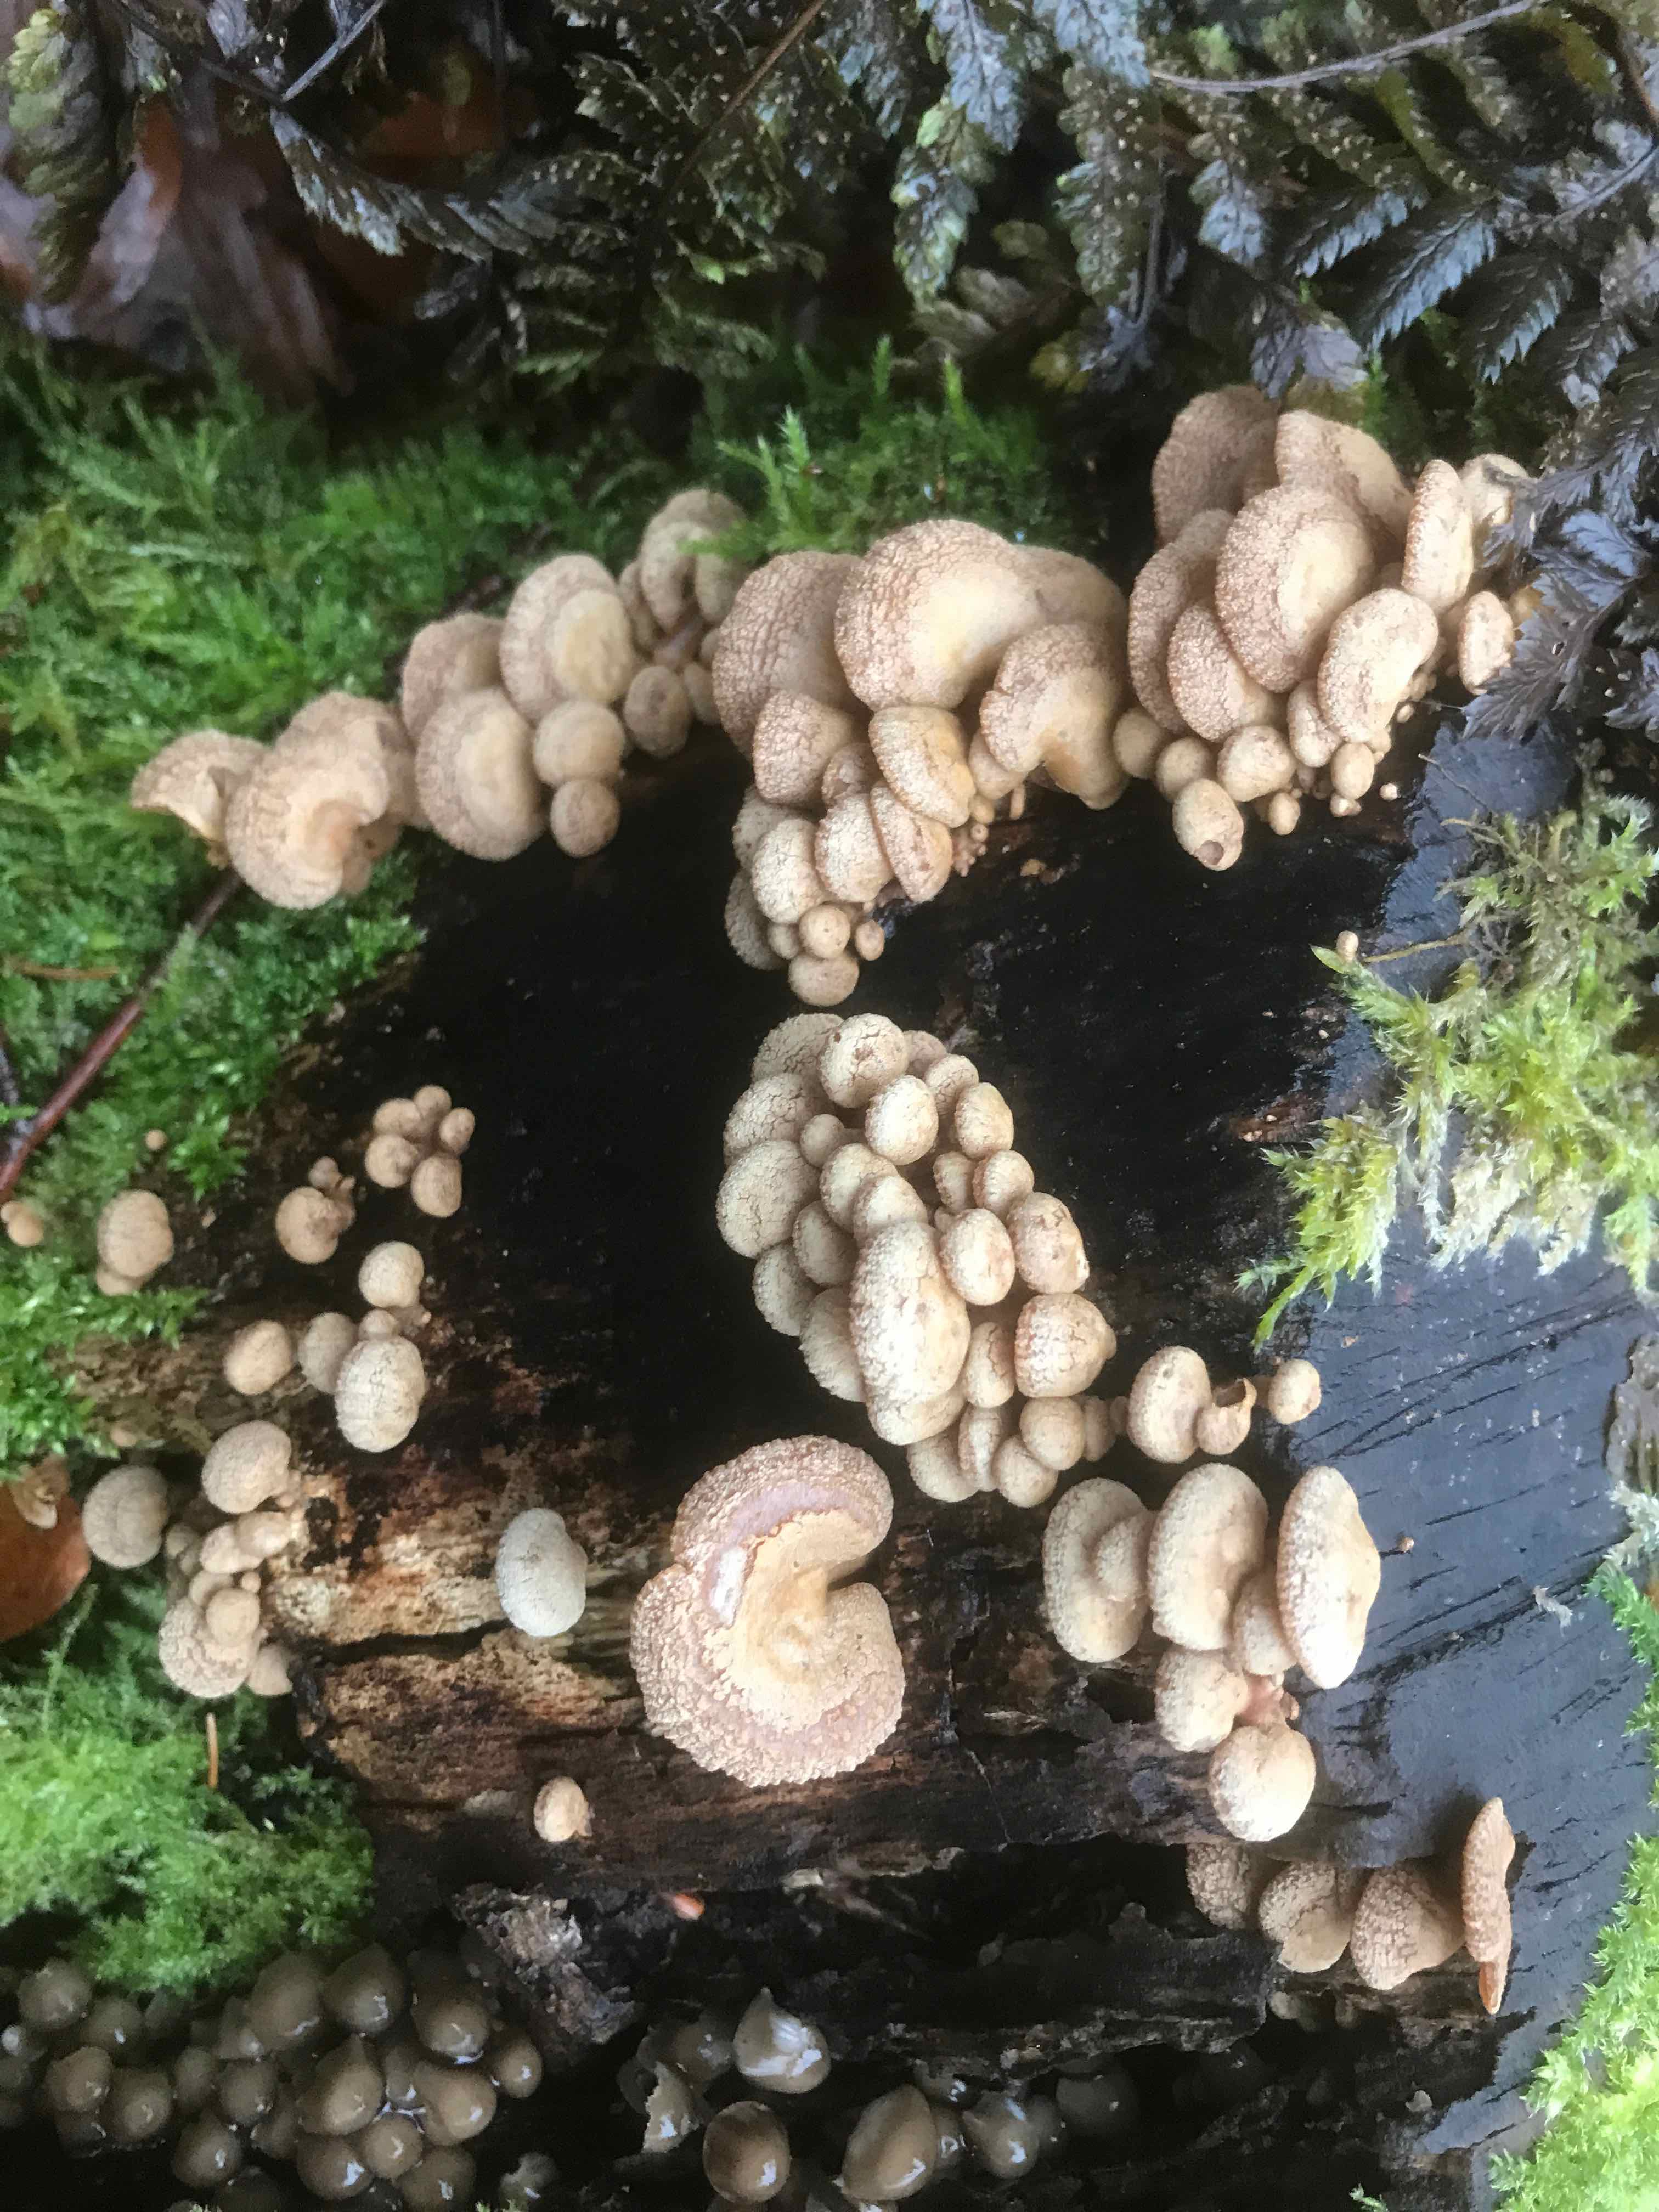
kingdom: Fungi
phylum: Basidiomycota
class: Agaricomycetes
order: Agaricales
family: Mycenaceae
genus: Panellus
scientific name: Panellus stipticus
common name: kliddet epaulethat
